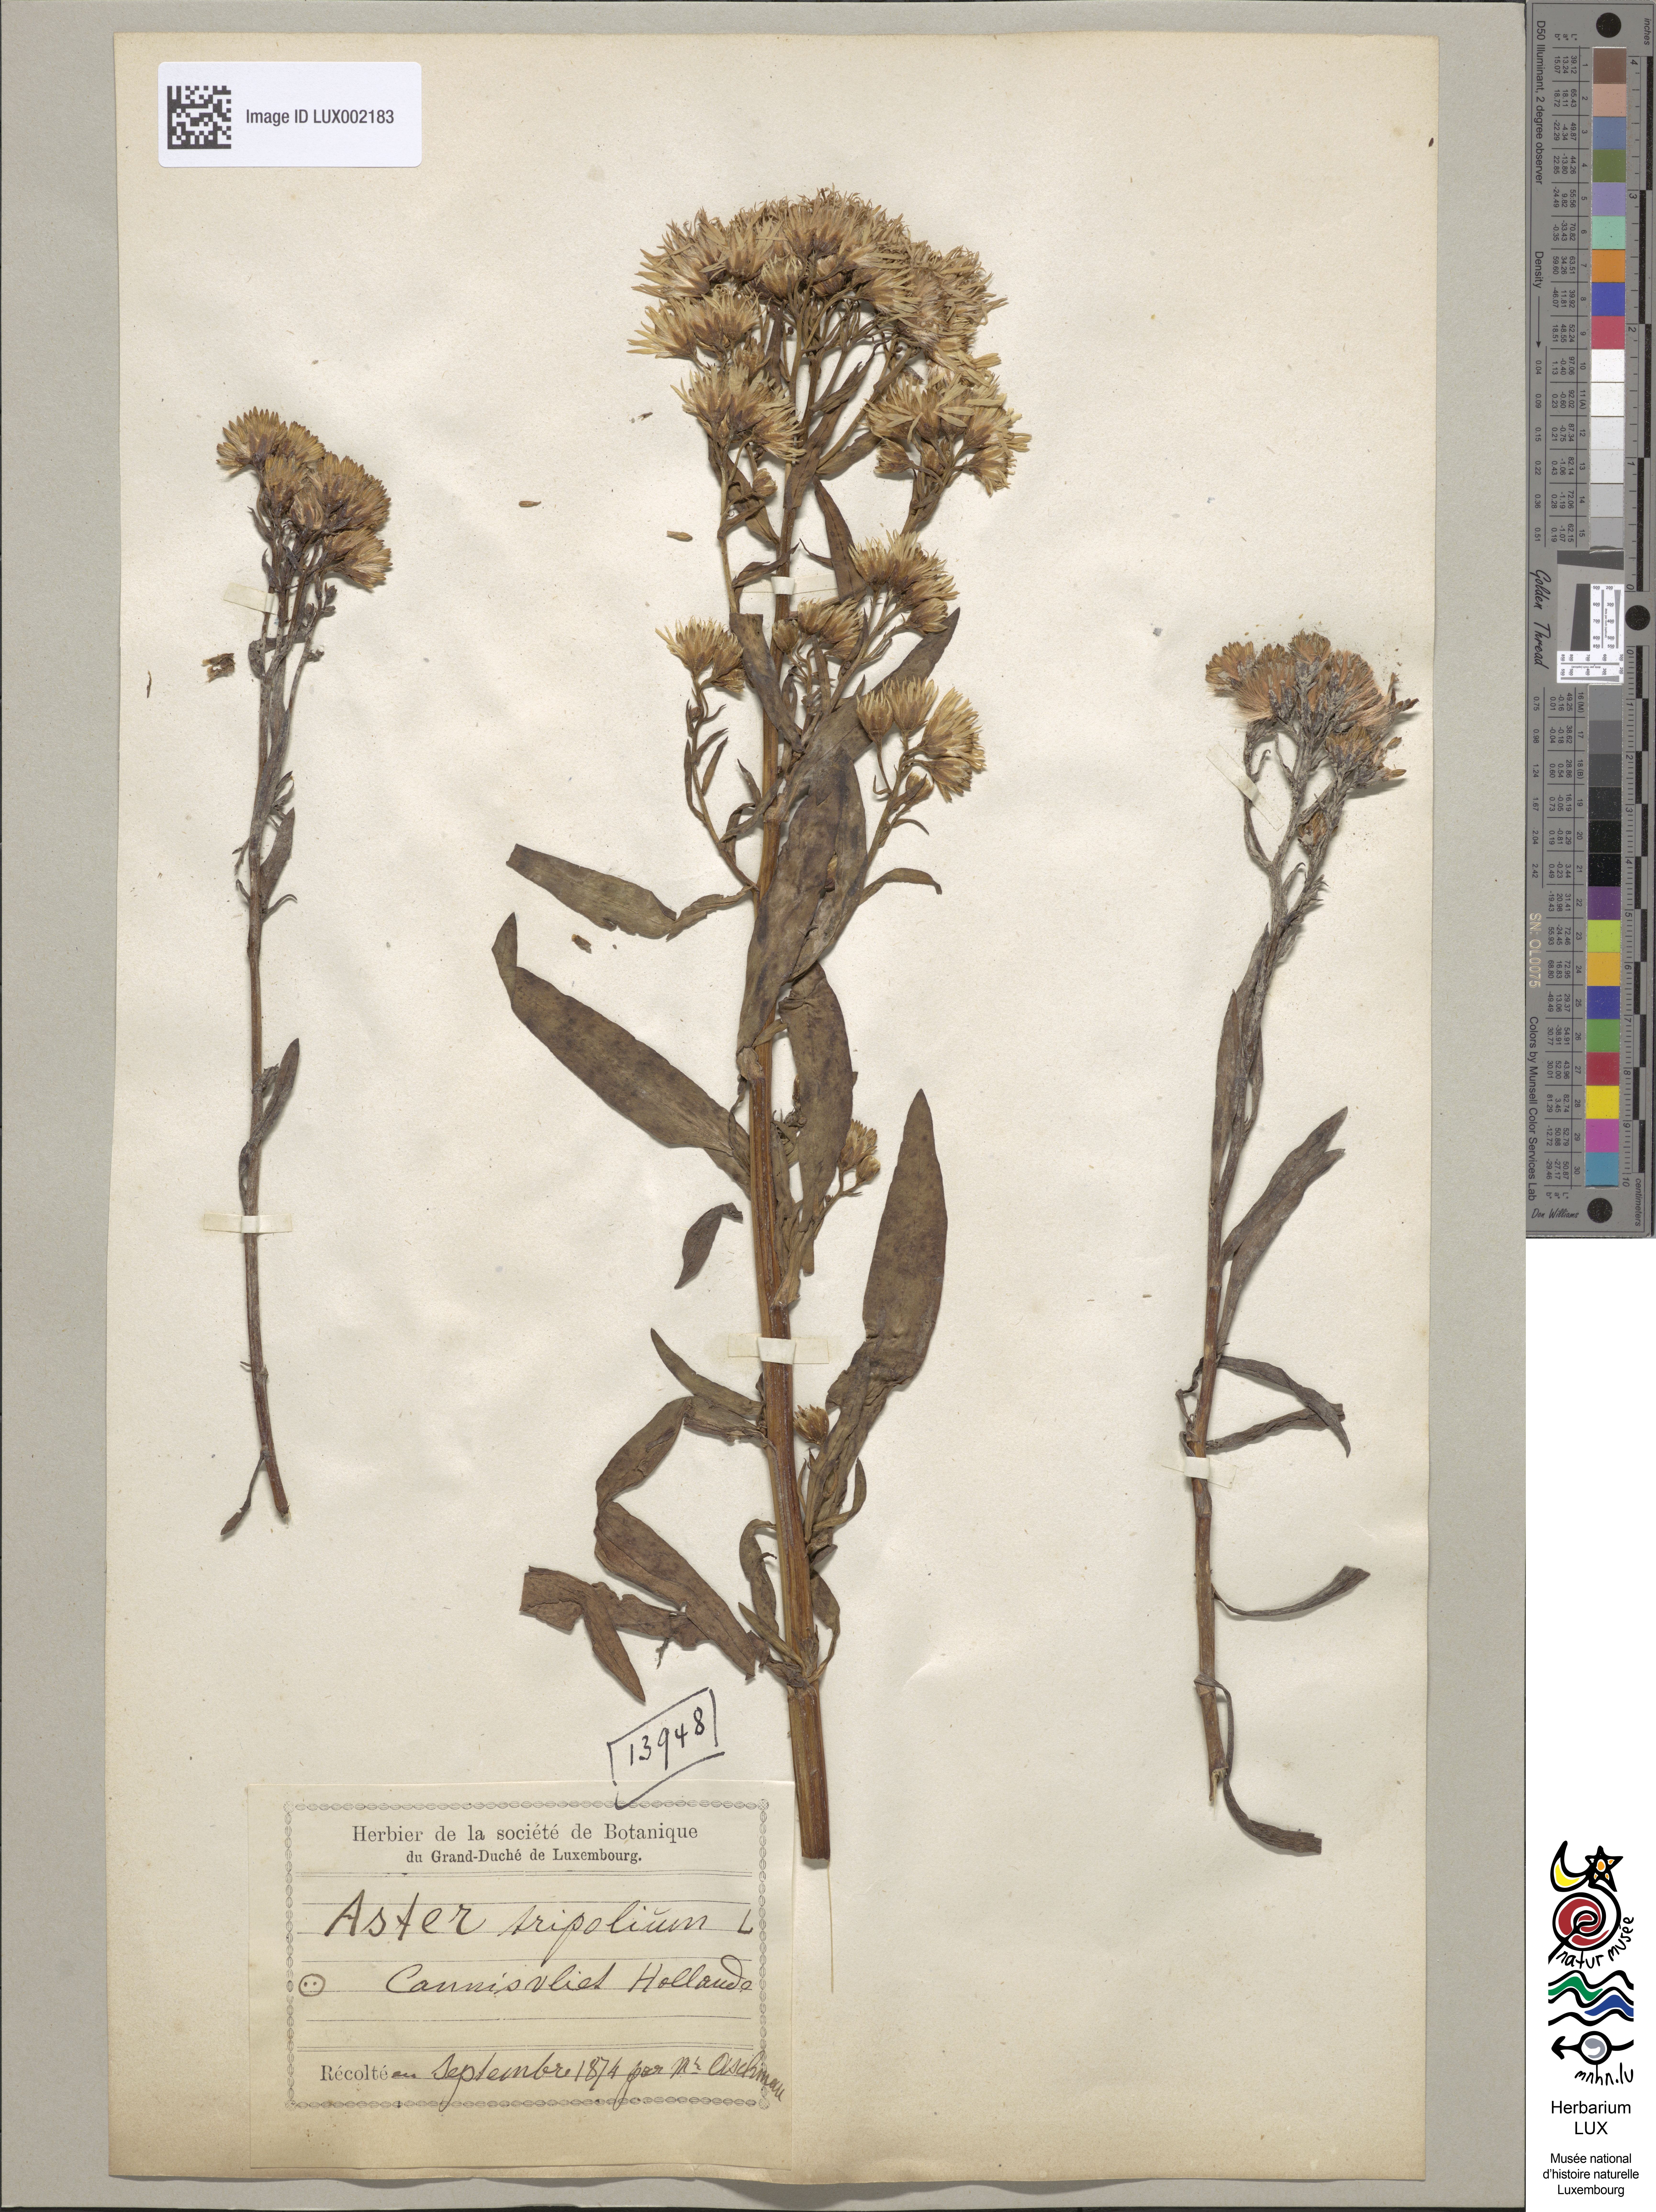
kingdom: Plantae
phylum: Tracheophyta
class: Magnoliopsida
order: Asterales
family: Asteraceae
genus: Tripolium
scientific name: Tripolium pannonicum
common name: Sea aster
